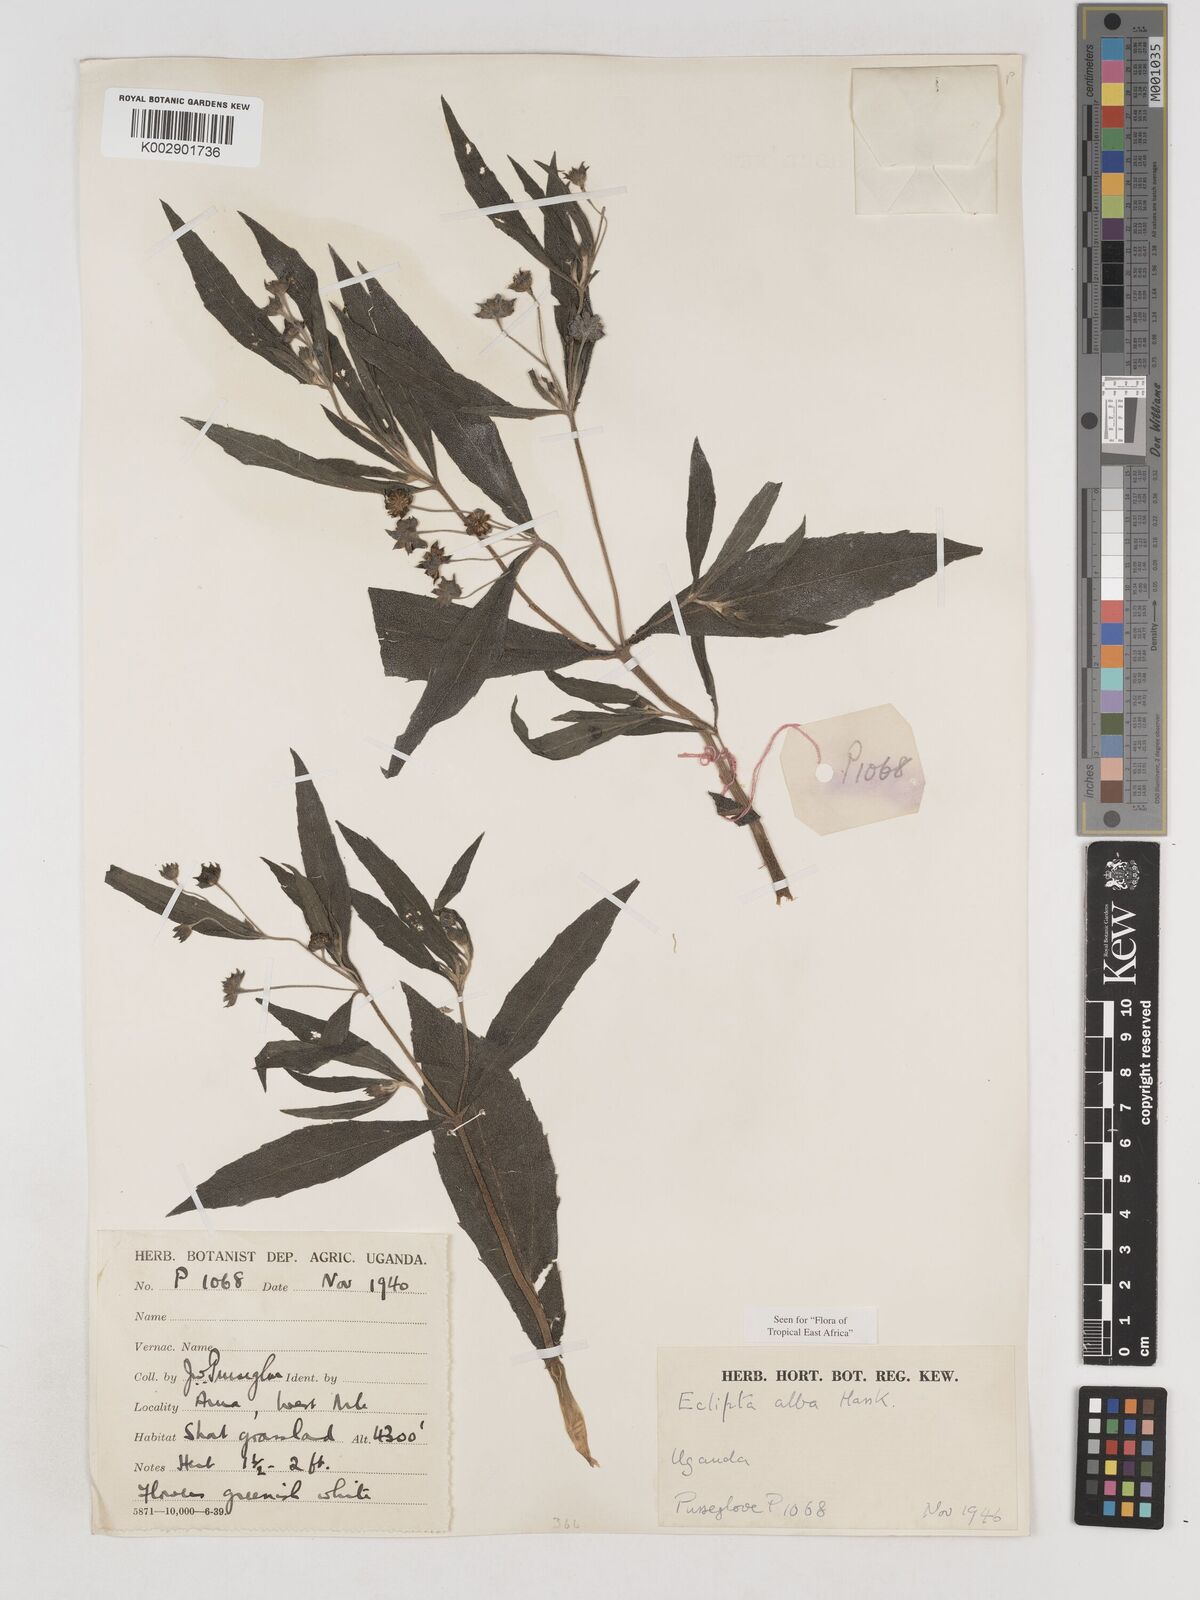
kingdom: Plantae
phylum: Tracheophyta
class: Magnoliopsida
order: Asterales
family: Asteraceae
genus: Eclipta
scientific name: Eclipta alba
